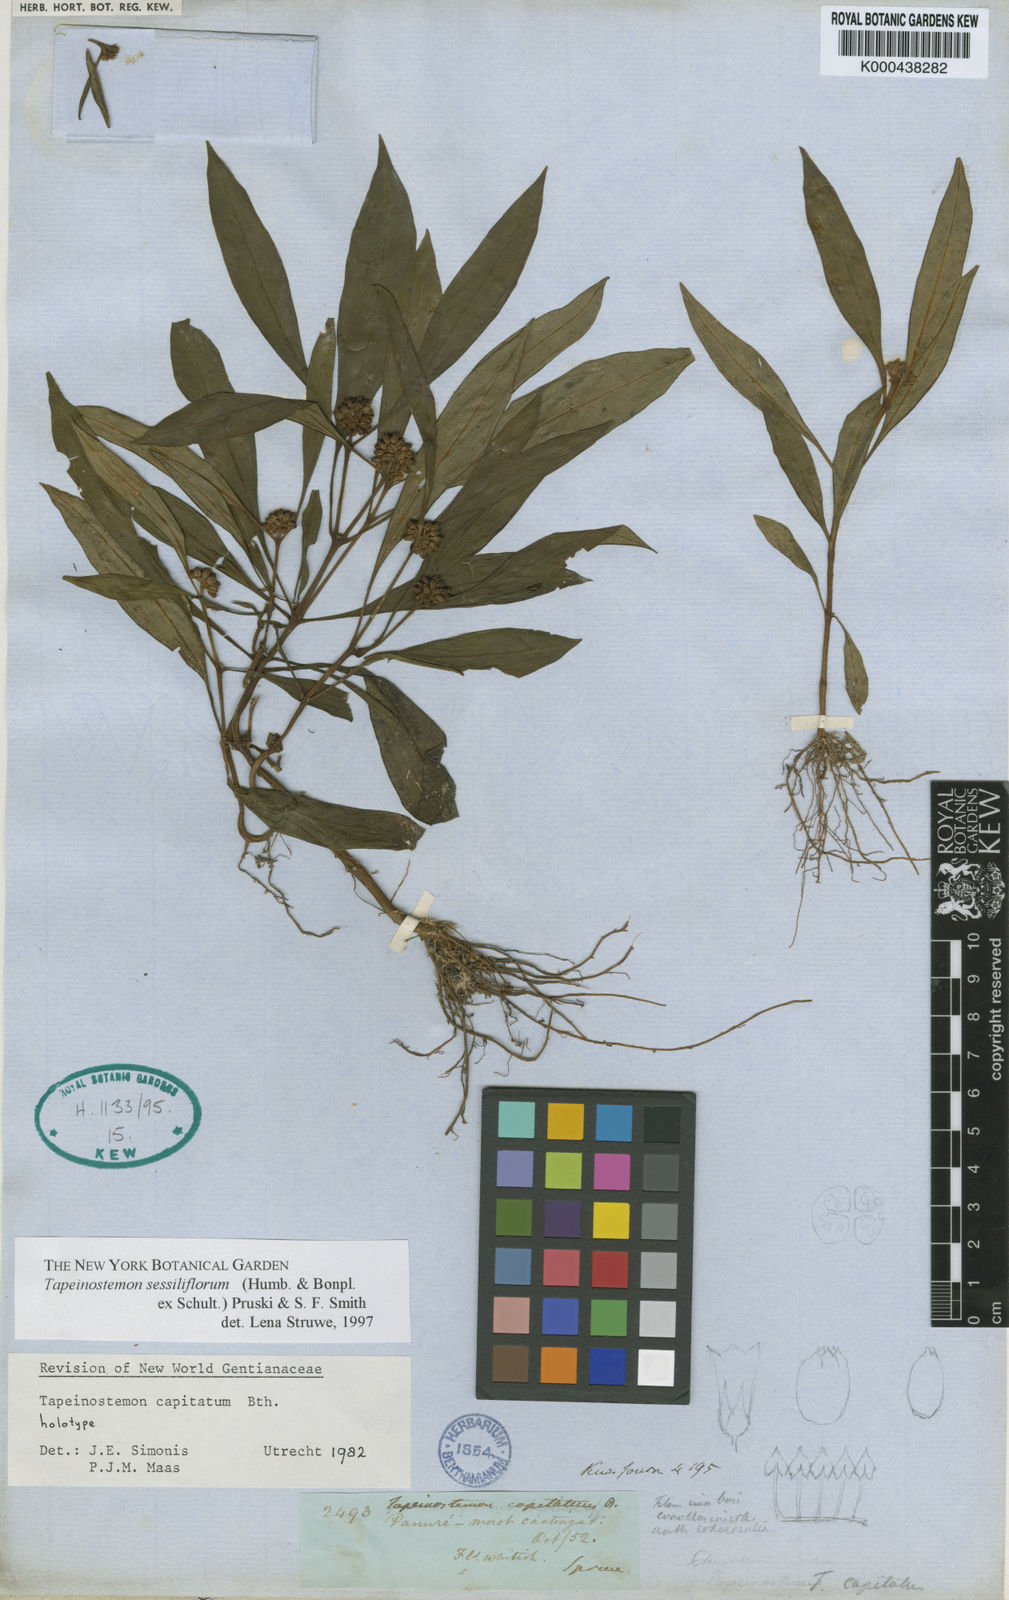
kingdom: Plantae
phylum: Tracheophyta
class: Magnoliopsida
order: Gentianales
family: Gentianaceae
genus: Tapeinostemon
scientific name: Tapeinostemon sessiliflorus
